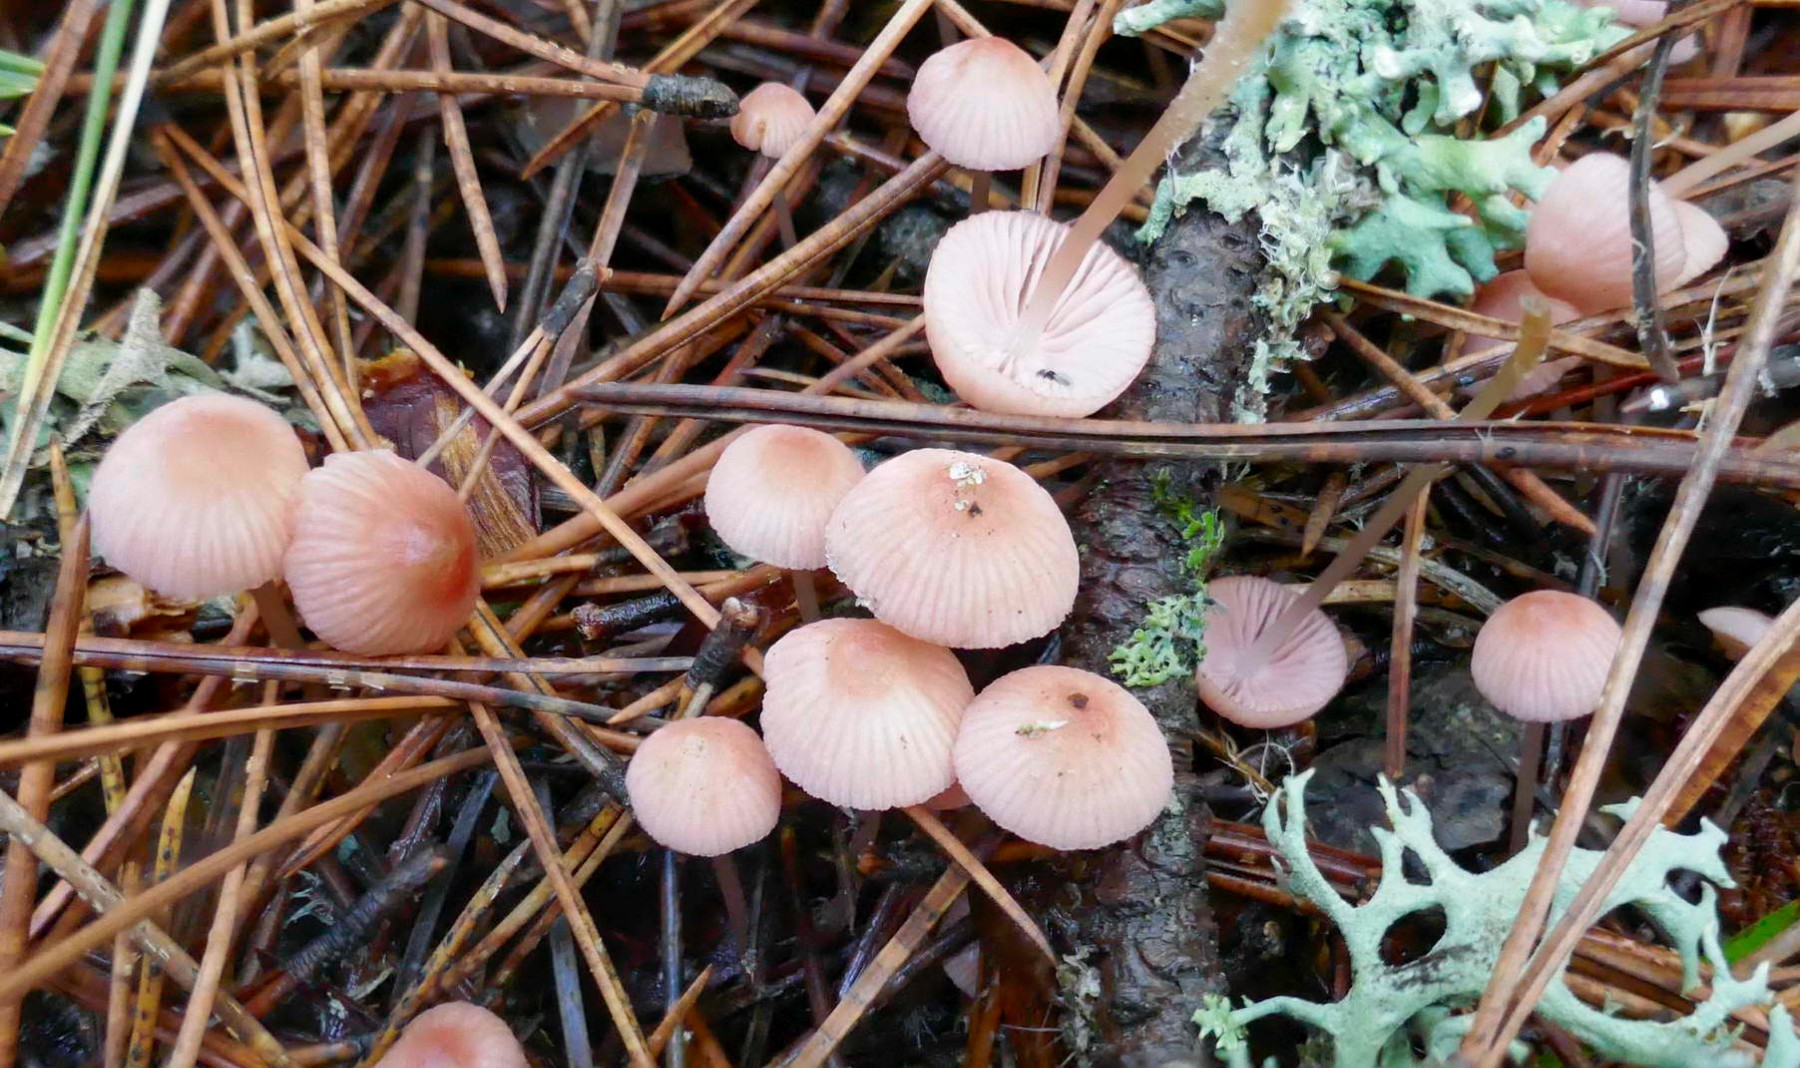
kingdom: Fungi
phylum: Basidiomycota
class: Agaricomycetes
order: Agaricales
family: Mycenaceae
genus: Mycena
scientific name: Mycena rosella
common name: rosenrød huesvamp
